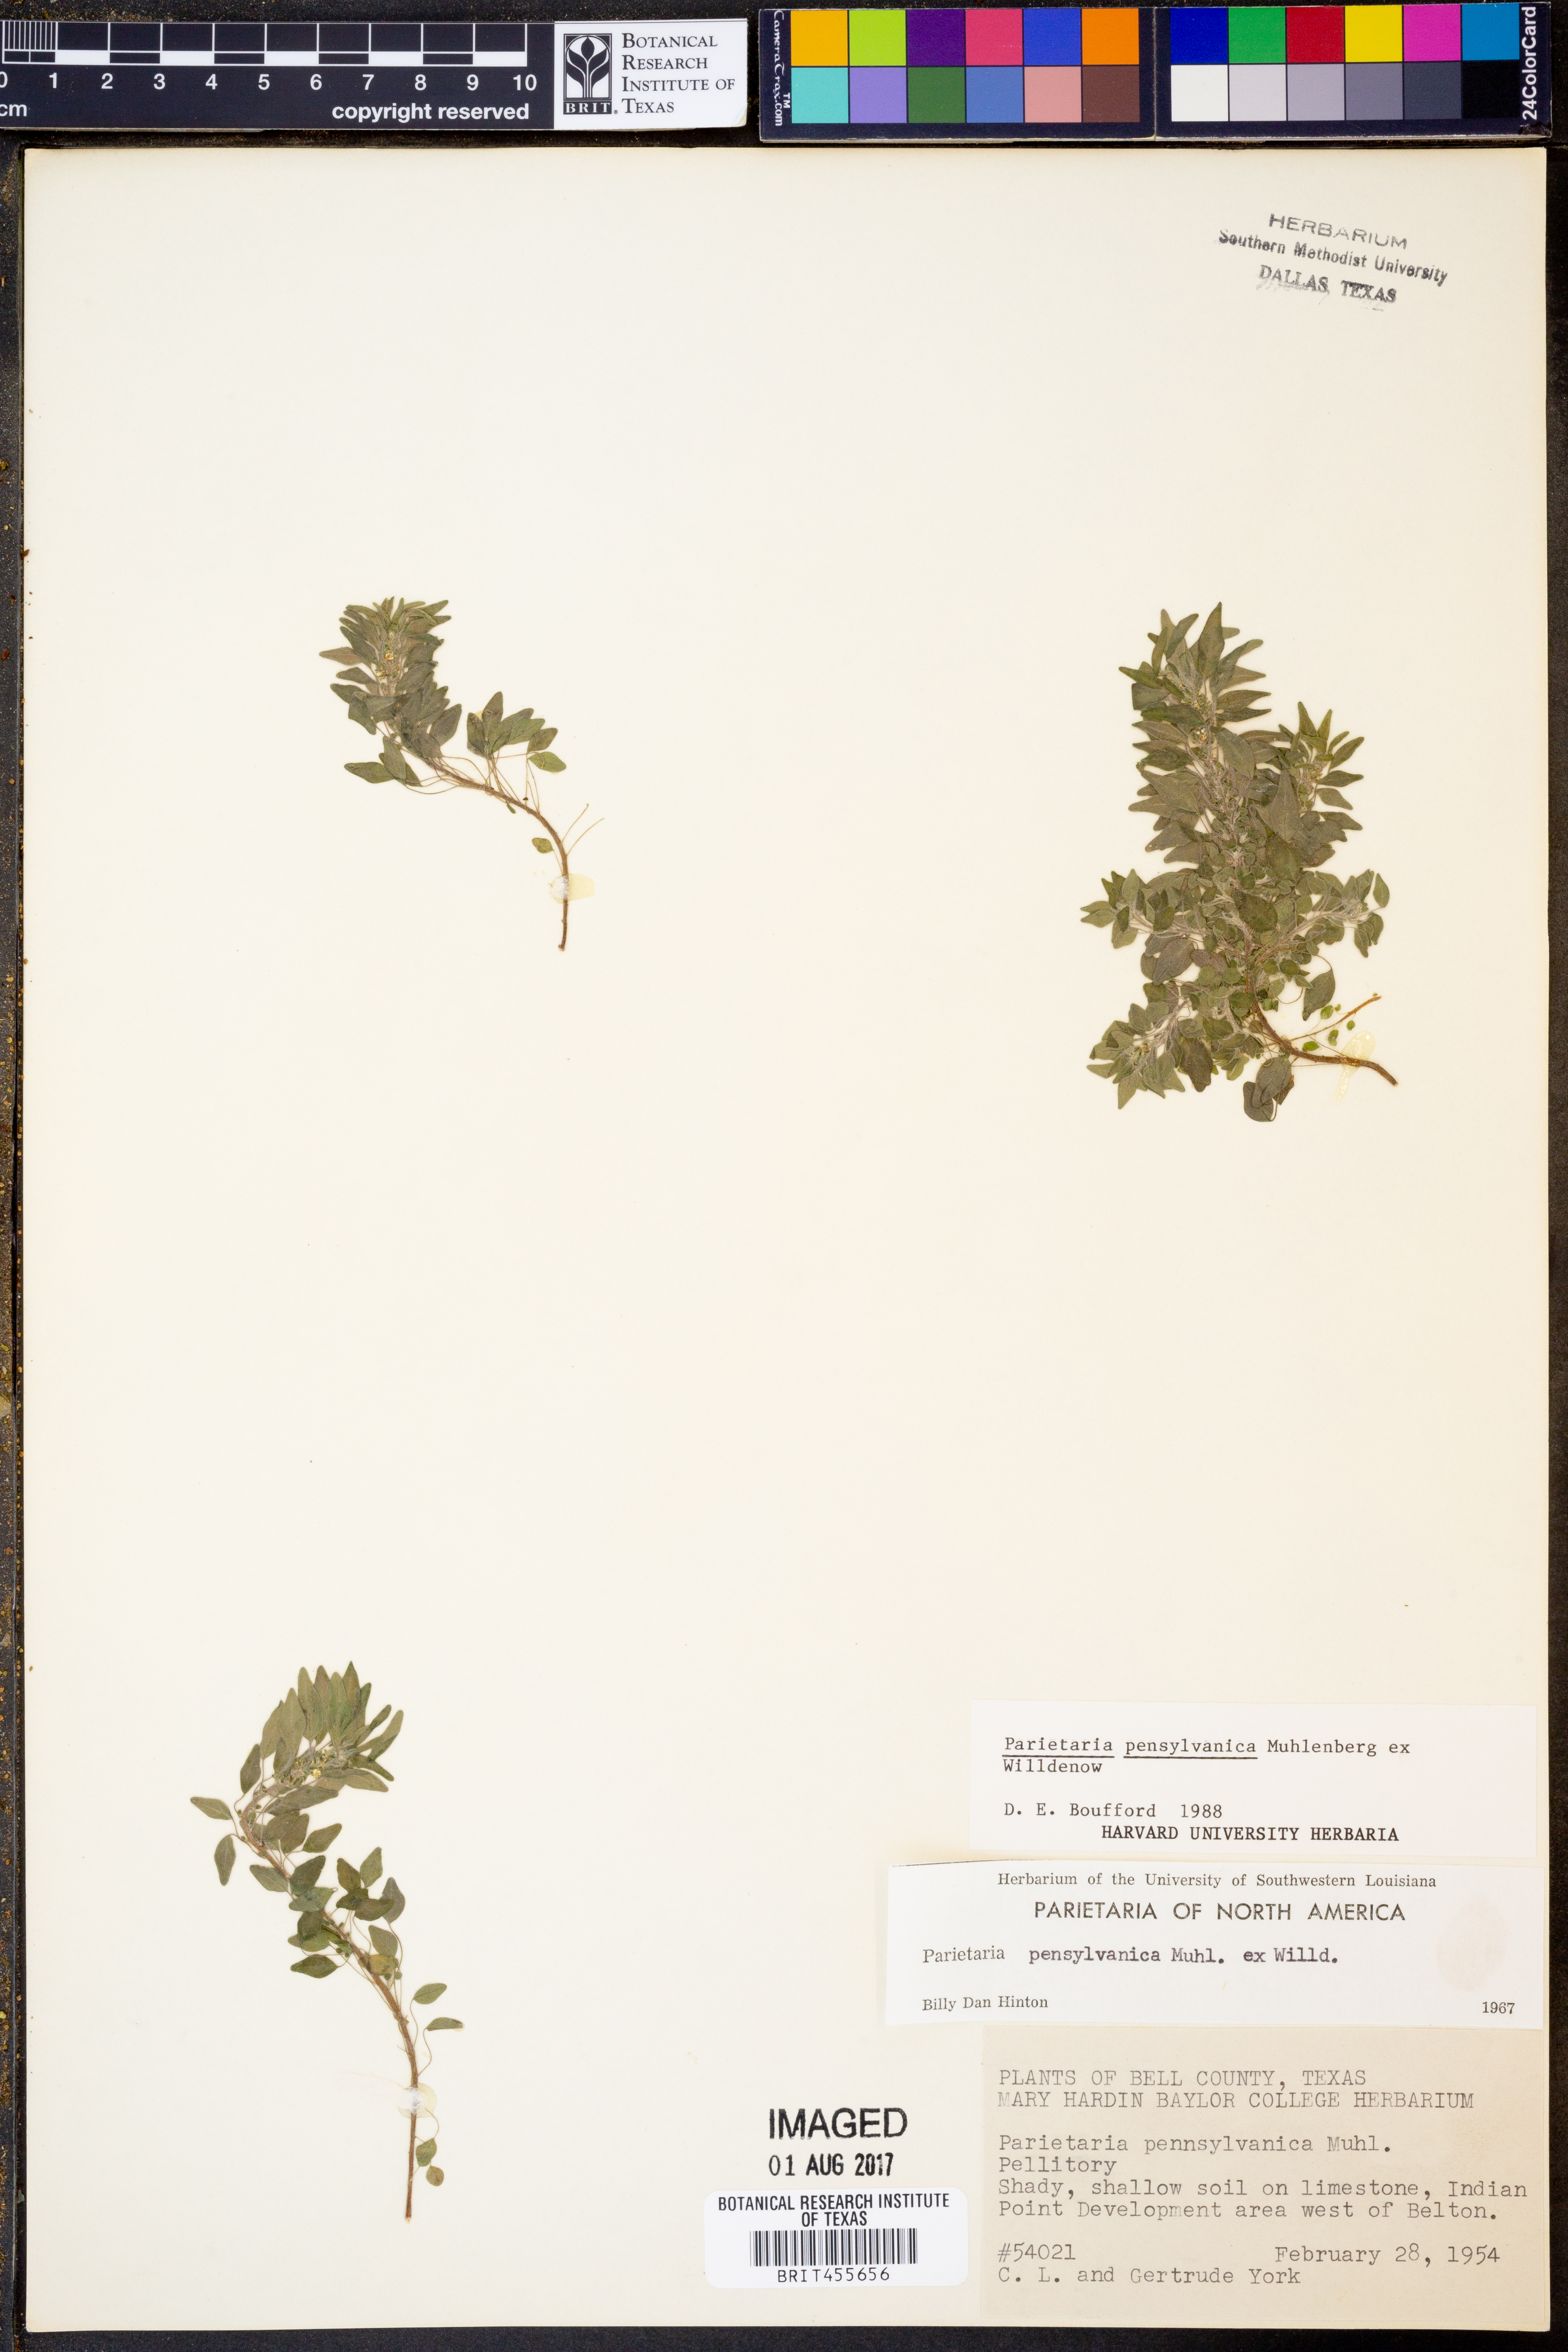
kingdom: Plantae
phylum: Tracheophyta
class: Magnoliopsida
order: Rosales
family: Urticaceae
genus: Parietaria
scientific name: Parietaria pensylvanica
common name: Pennsylvania pellitory
